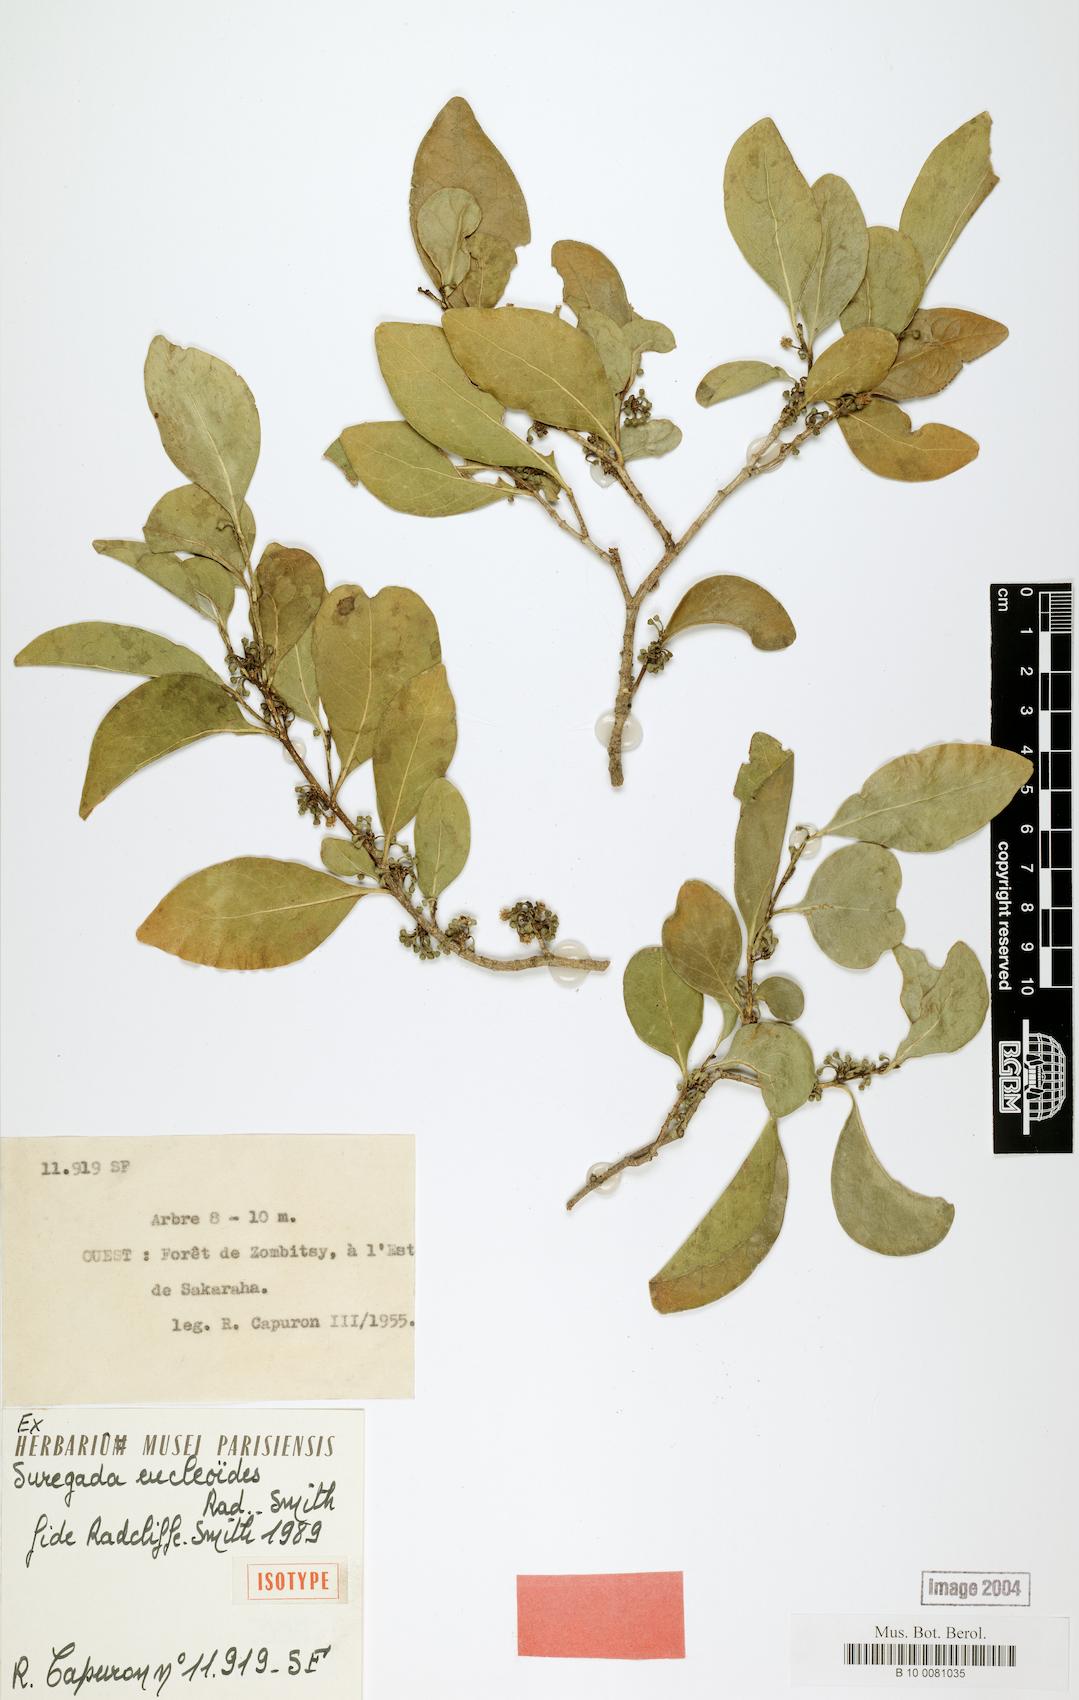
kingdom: Plantae
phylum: Tracheophyta
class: Magnoliopsida
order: Malpighiales
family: Euphorbiaceae
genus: Suregada
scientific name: Suregada eucleoides
